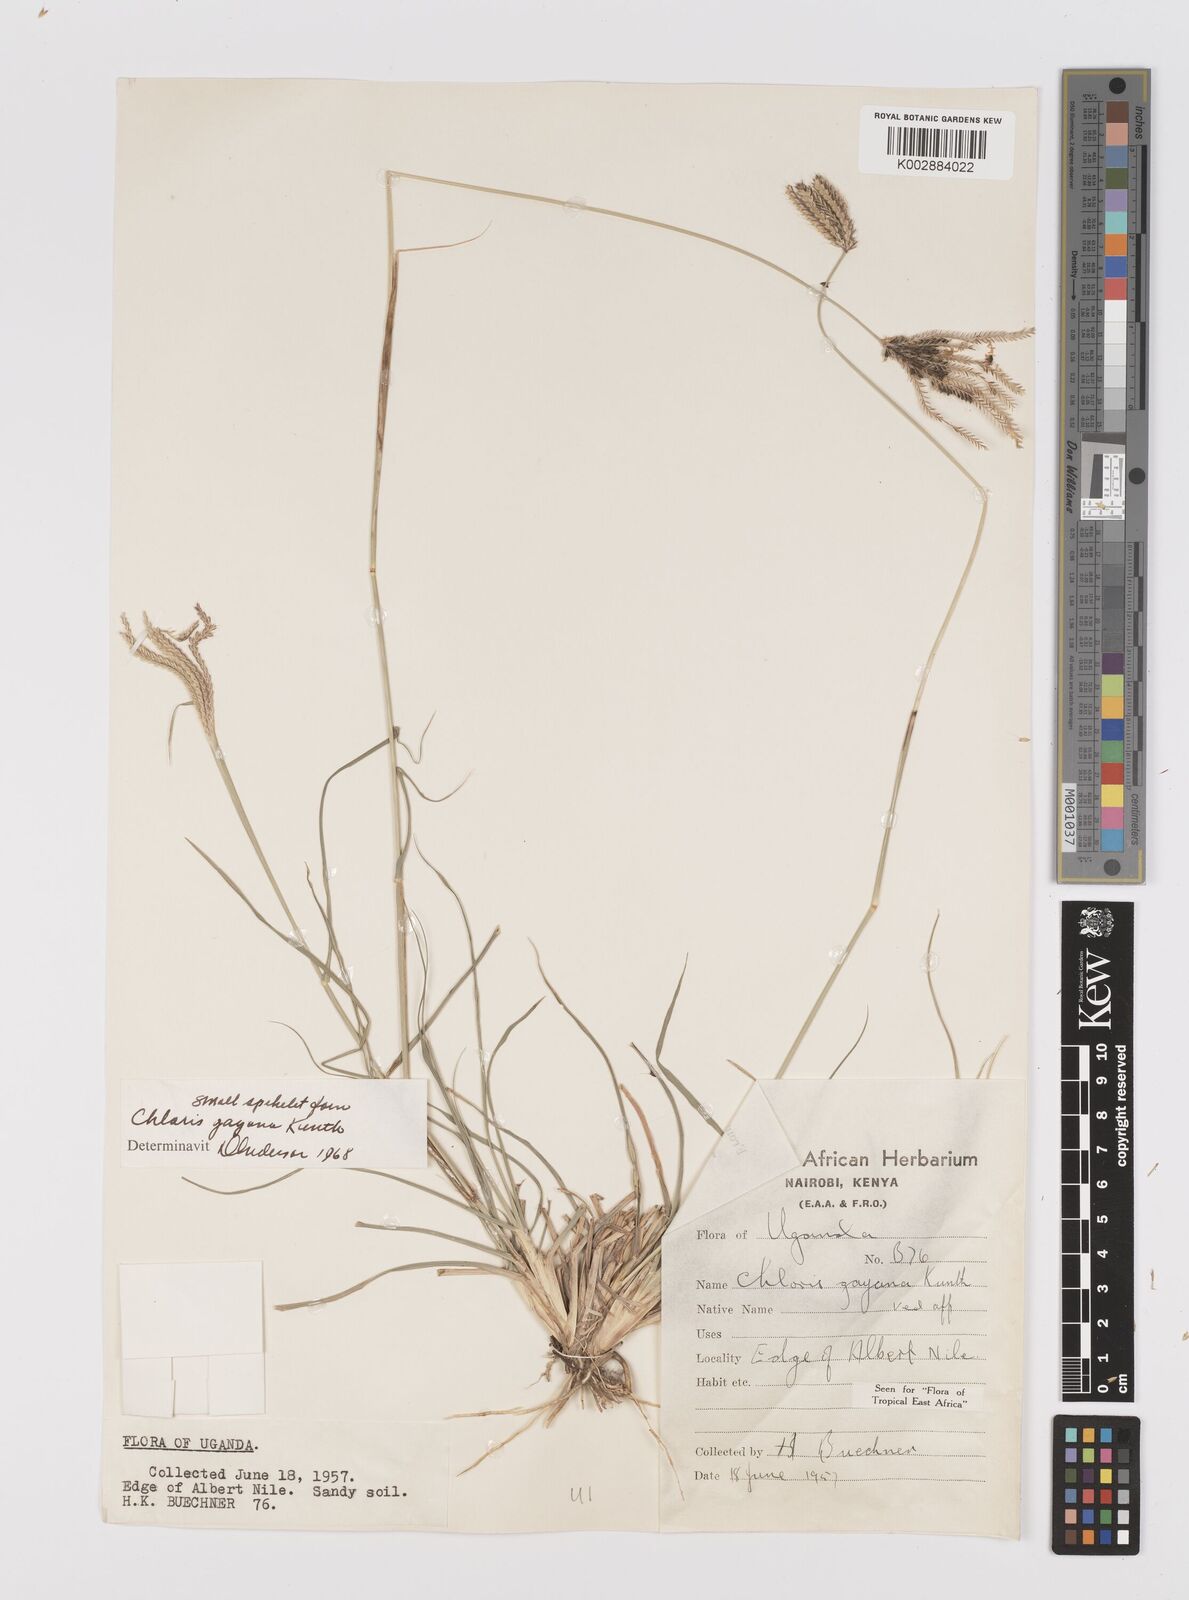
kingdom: Plantae
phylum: Tracheophyta
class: Liliopsida
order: Poales
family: Poaceae
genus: Chloris
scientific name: Chloris gayana
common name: Rhodes grass
